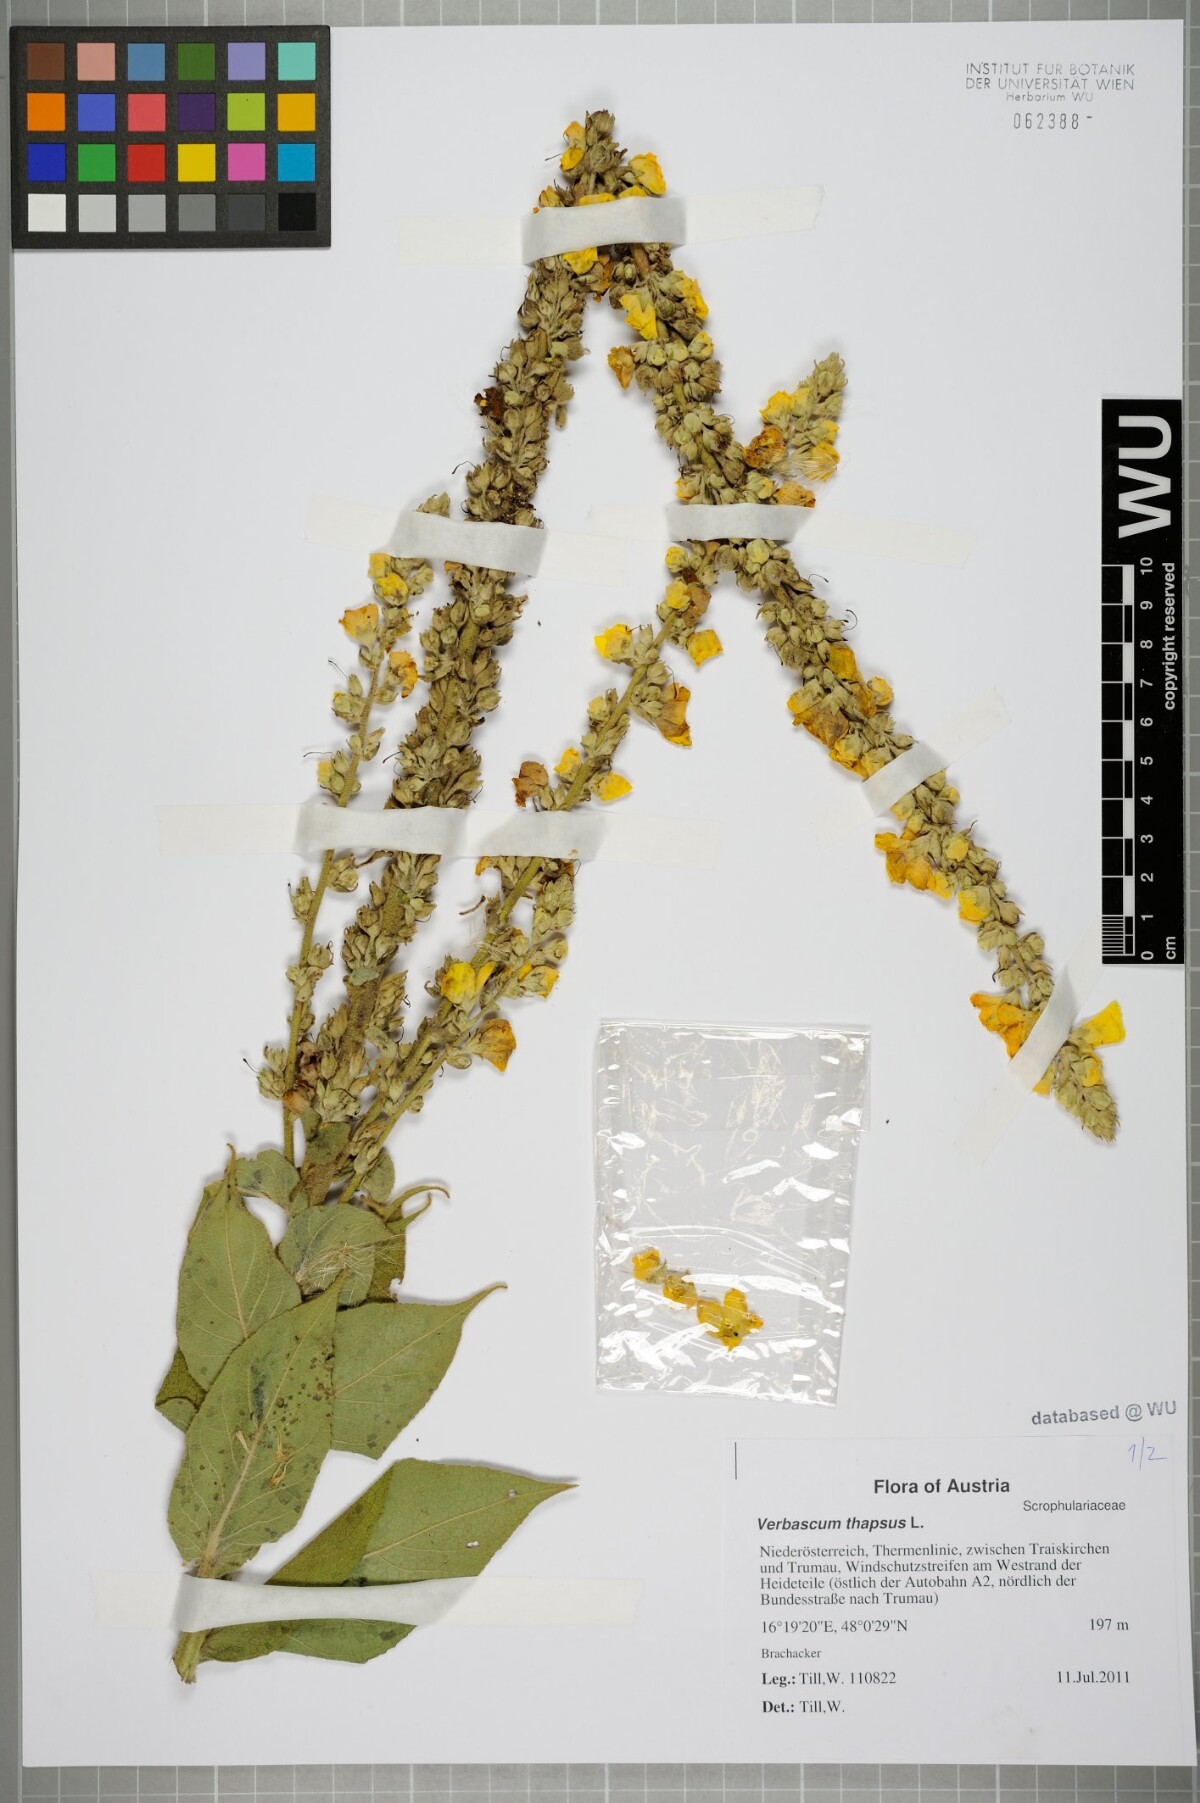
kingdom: Plantae
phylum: Tracheophyta
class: Magnoliopsida
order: Lamiales
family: Scrophulariaceae
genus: Verbascum
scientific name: Verbascum thapsus
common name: Common mullein
